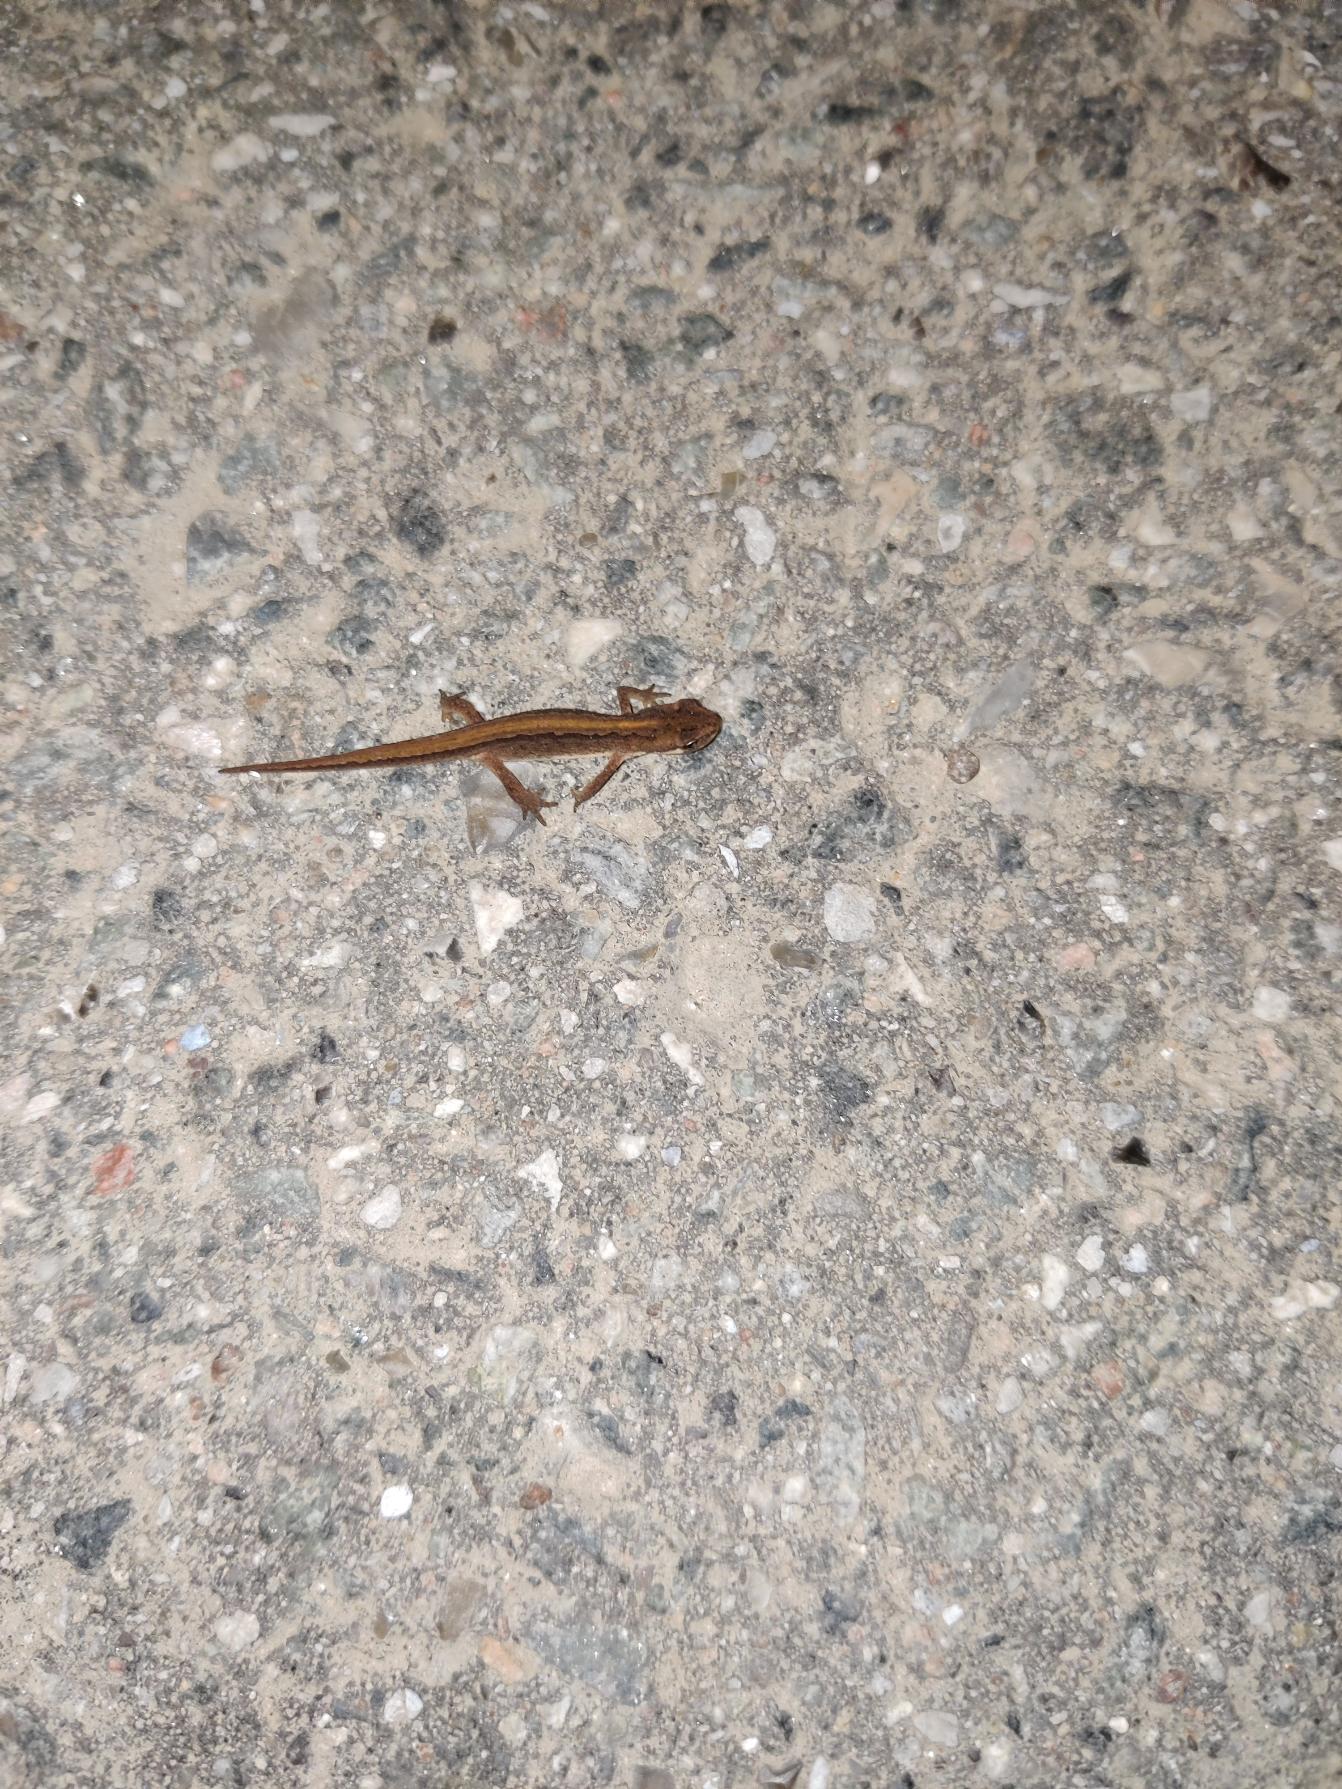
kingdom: Animalia
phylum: Chordata
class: Amphibia
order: Caudata
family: Salamandridae
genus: Lissotriton
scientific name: Lissotriton vulgaris
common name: Lille vandsalamander
